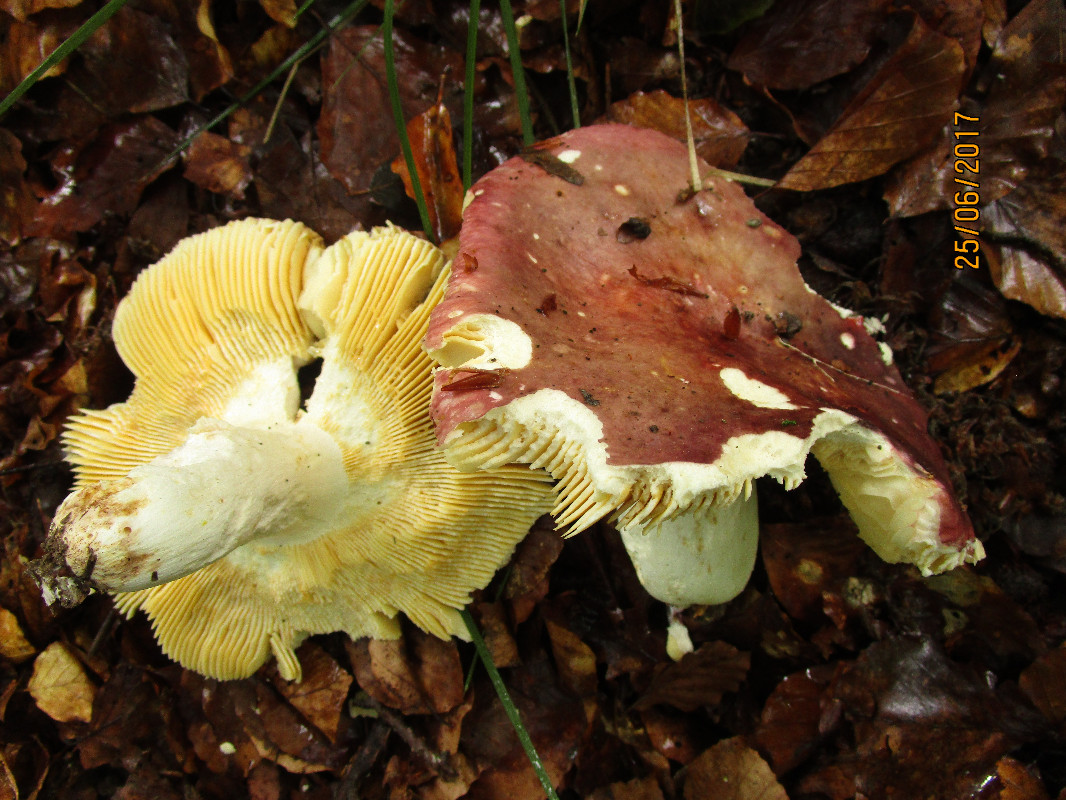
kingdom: Fungi
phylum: Basidiomycota
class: Agaricomycetes
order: Russulales
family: Russulaceae
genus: Russula
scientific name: Russula romellii
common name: romells skørhat
